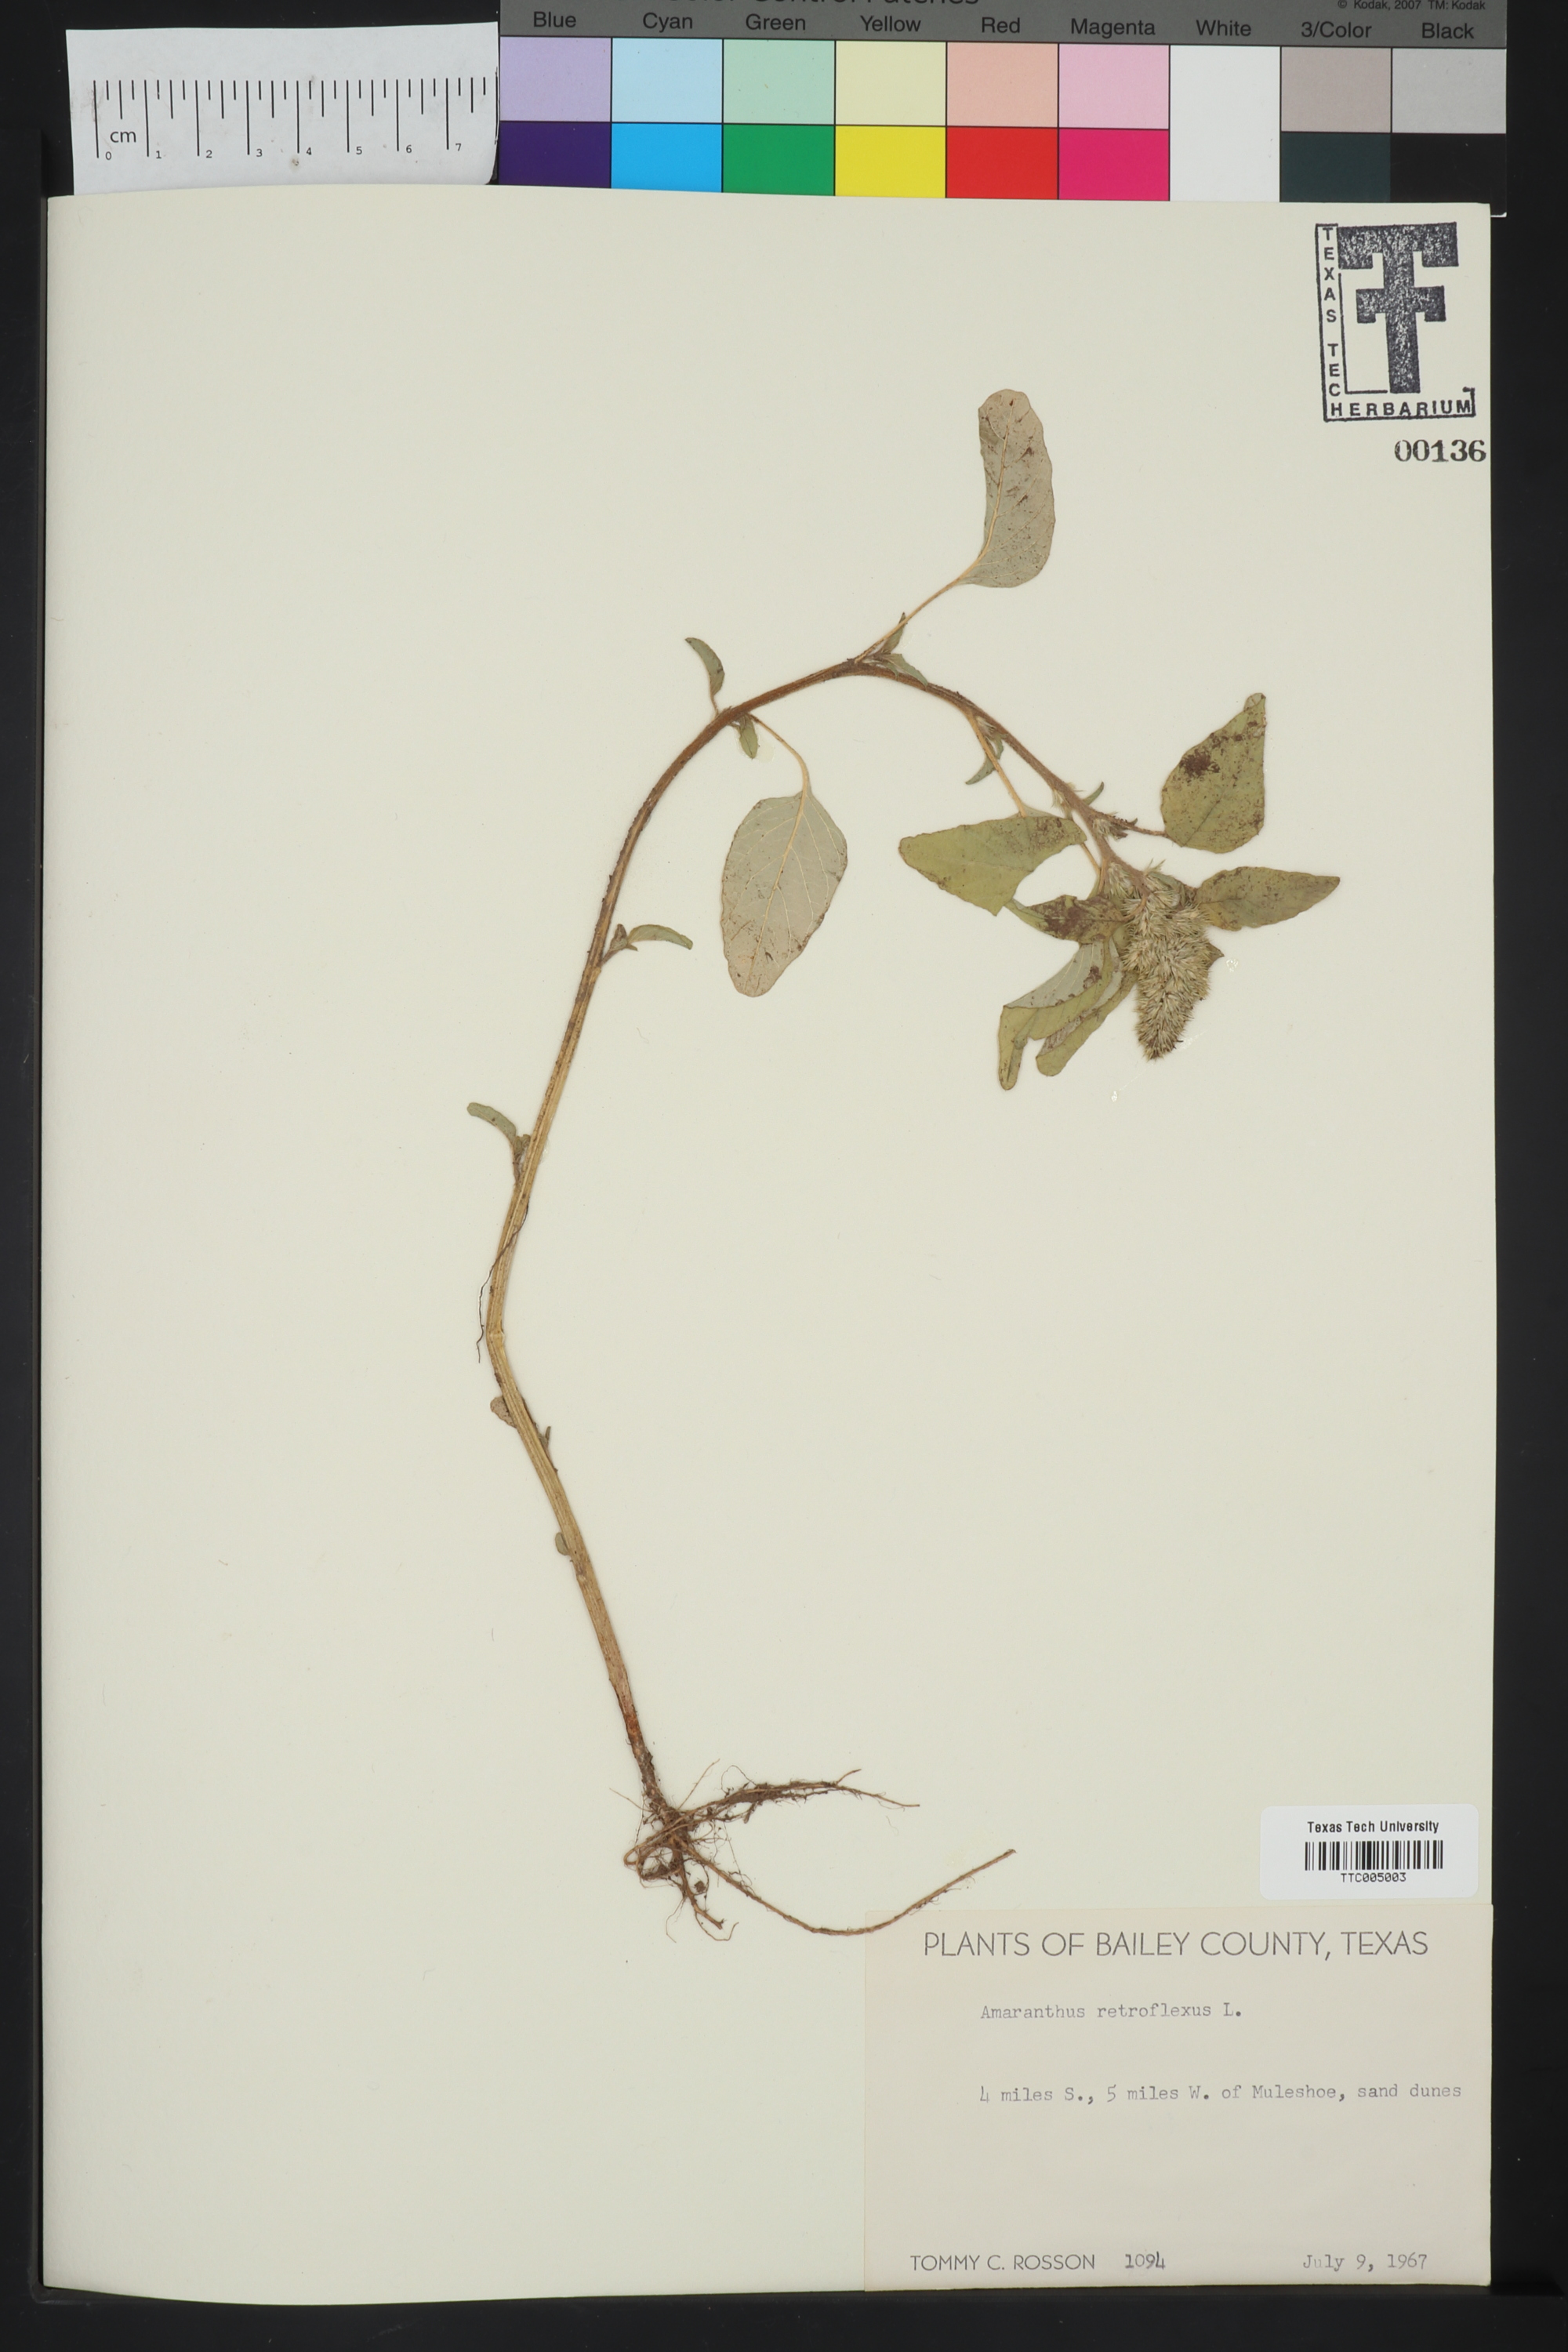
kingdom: Plantae
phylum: Tracheophyta
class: Magnoliopsida
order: Caryophyllales
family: Amaranthaceae
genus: Amaranthus
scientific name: Amaranthus retroflexus
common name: Redroot amaranth
